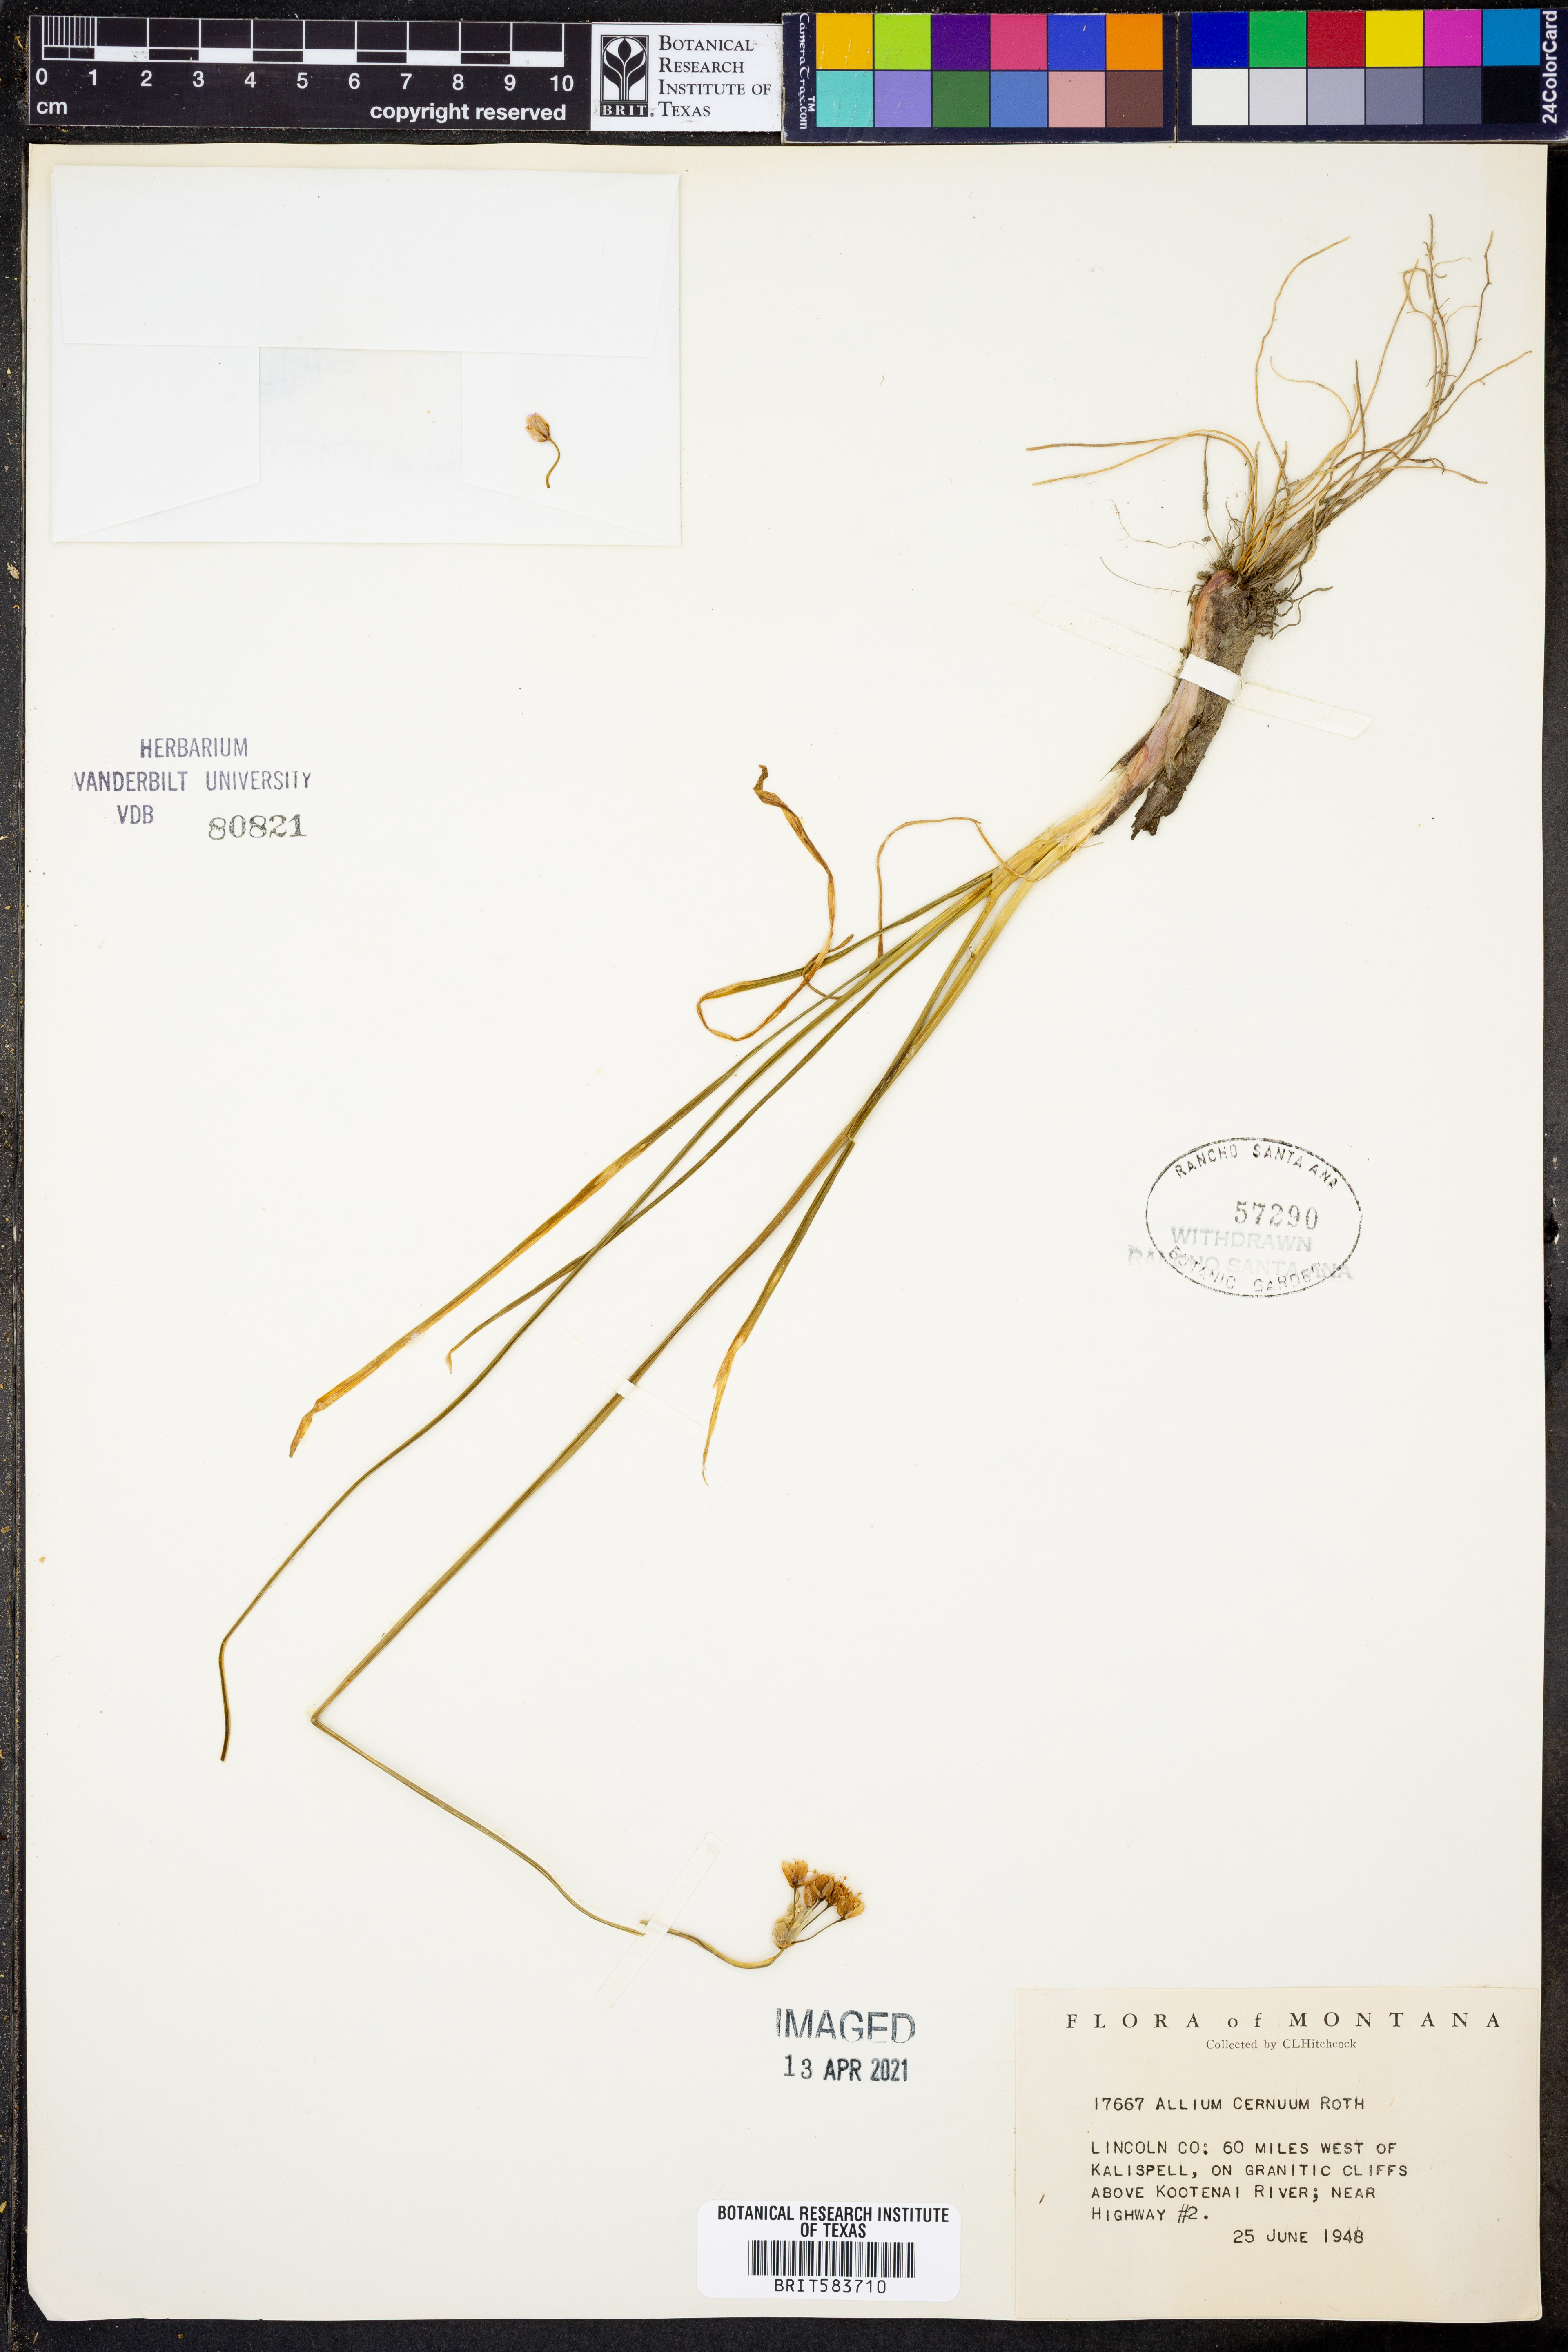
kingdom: Plantae
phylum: Tracheophyta
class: Liliopsida
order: Asparagales
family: Amaryllidaceae
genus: Allium
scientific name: Allium cernuum
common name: Nodding onion
